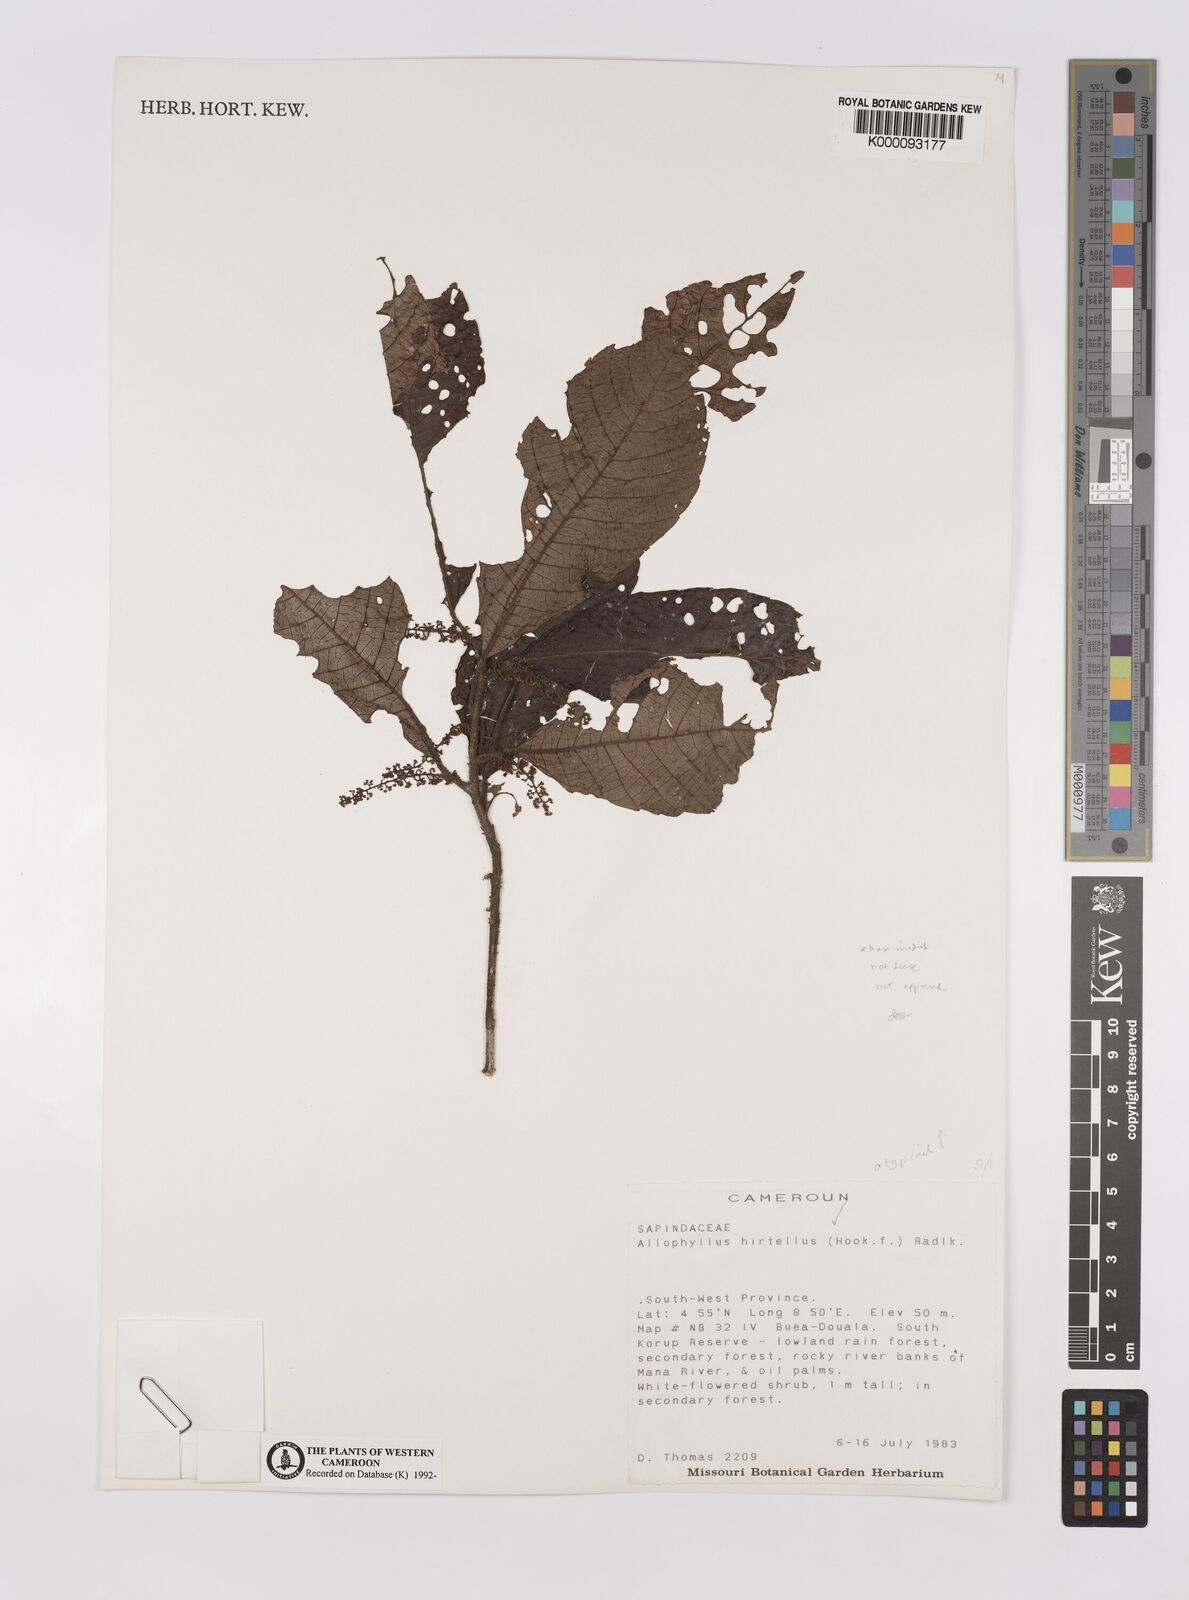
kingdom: Plantae
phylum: Tracheophyta
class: Magnoliopsida
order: Sapindales
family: Sapindaceae
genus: Allophylus
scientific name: Allophylus hirtellus
